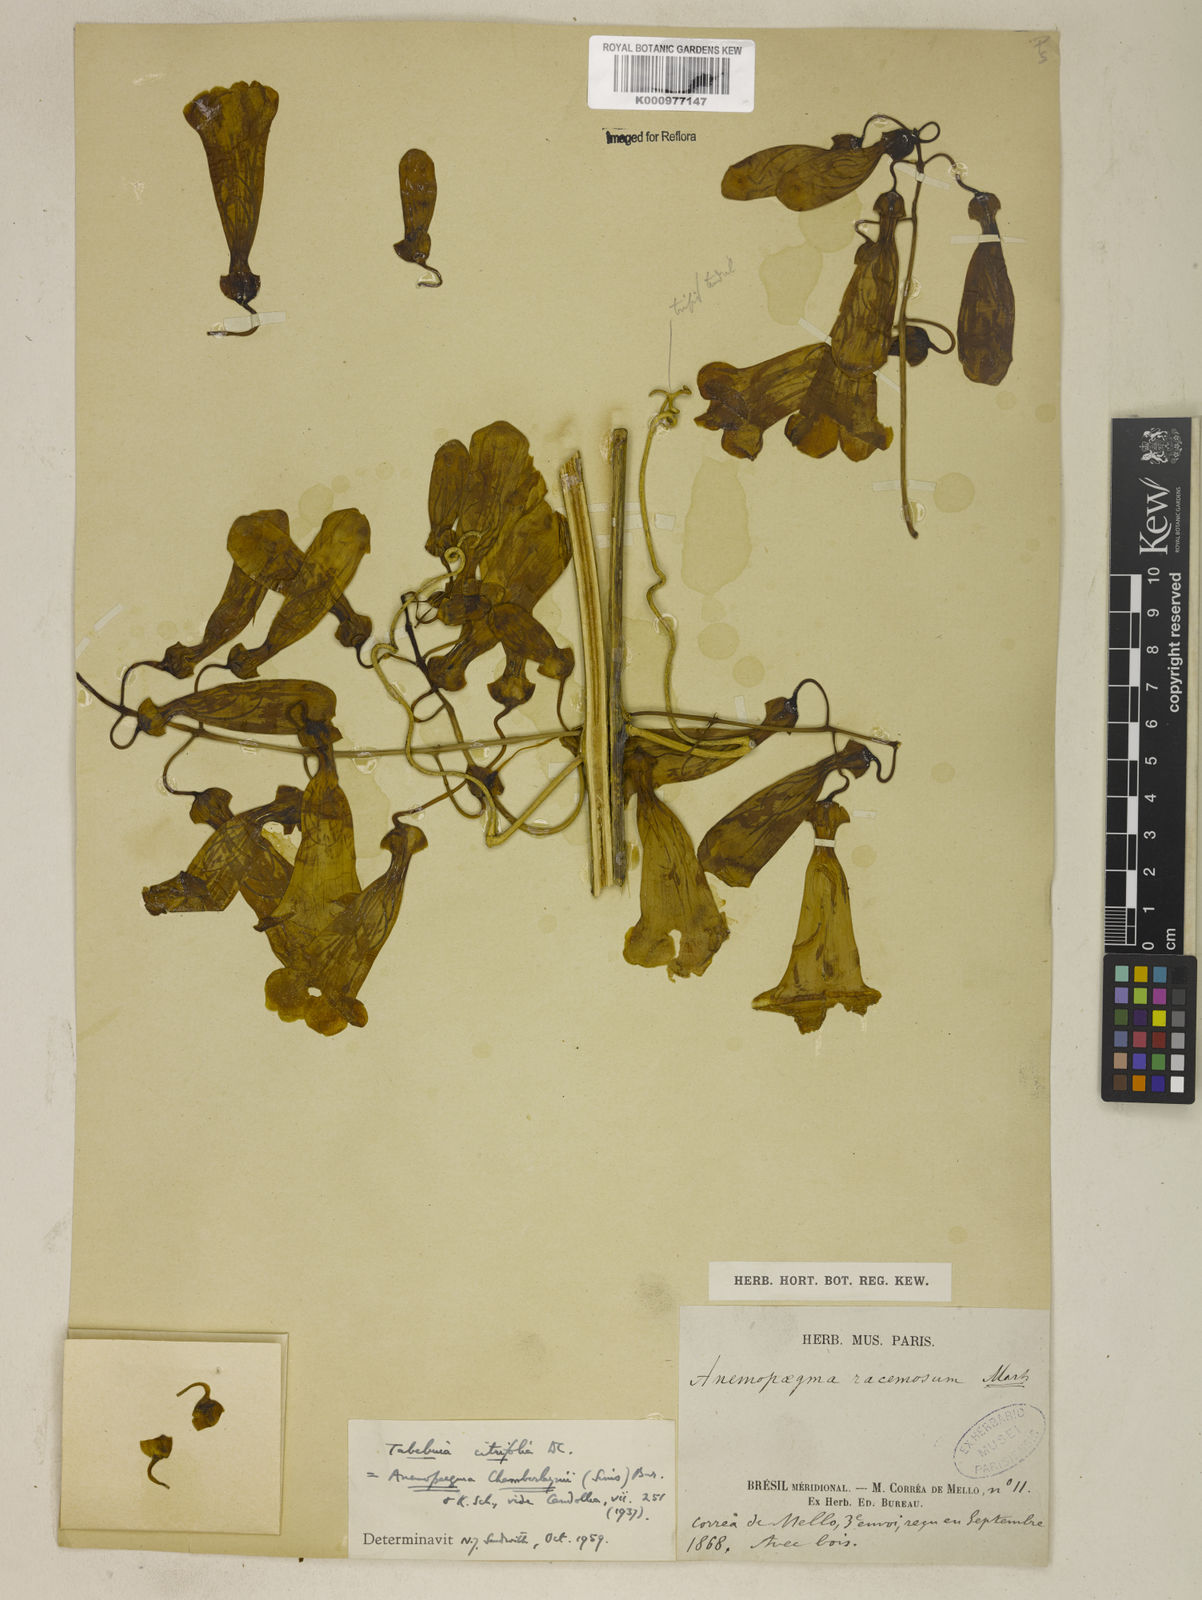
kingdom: Plantae
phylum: Tracheophyta
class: Magnoliopsida
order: Lamiales
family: Bignoniaceae
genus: Anemopaegma
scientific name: Anemopaegma chamberlaynii
